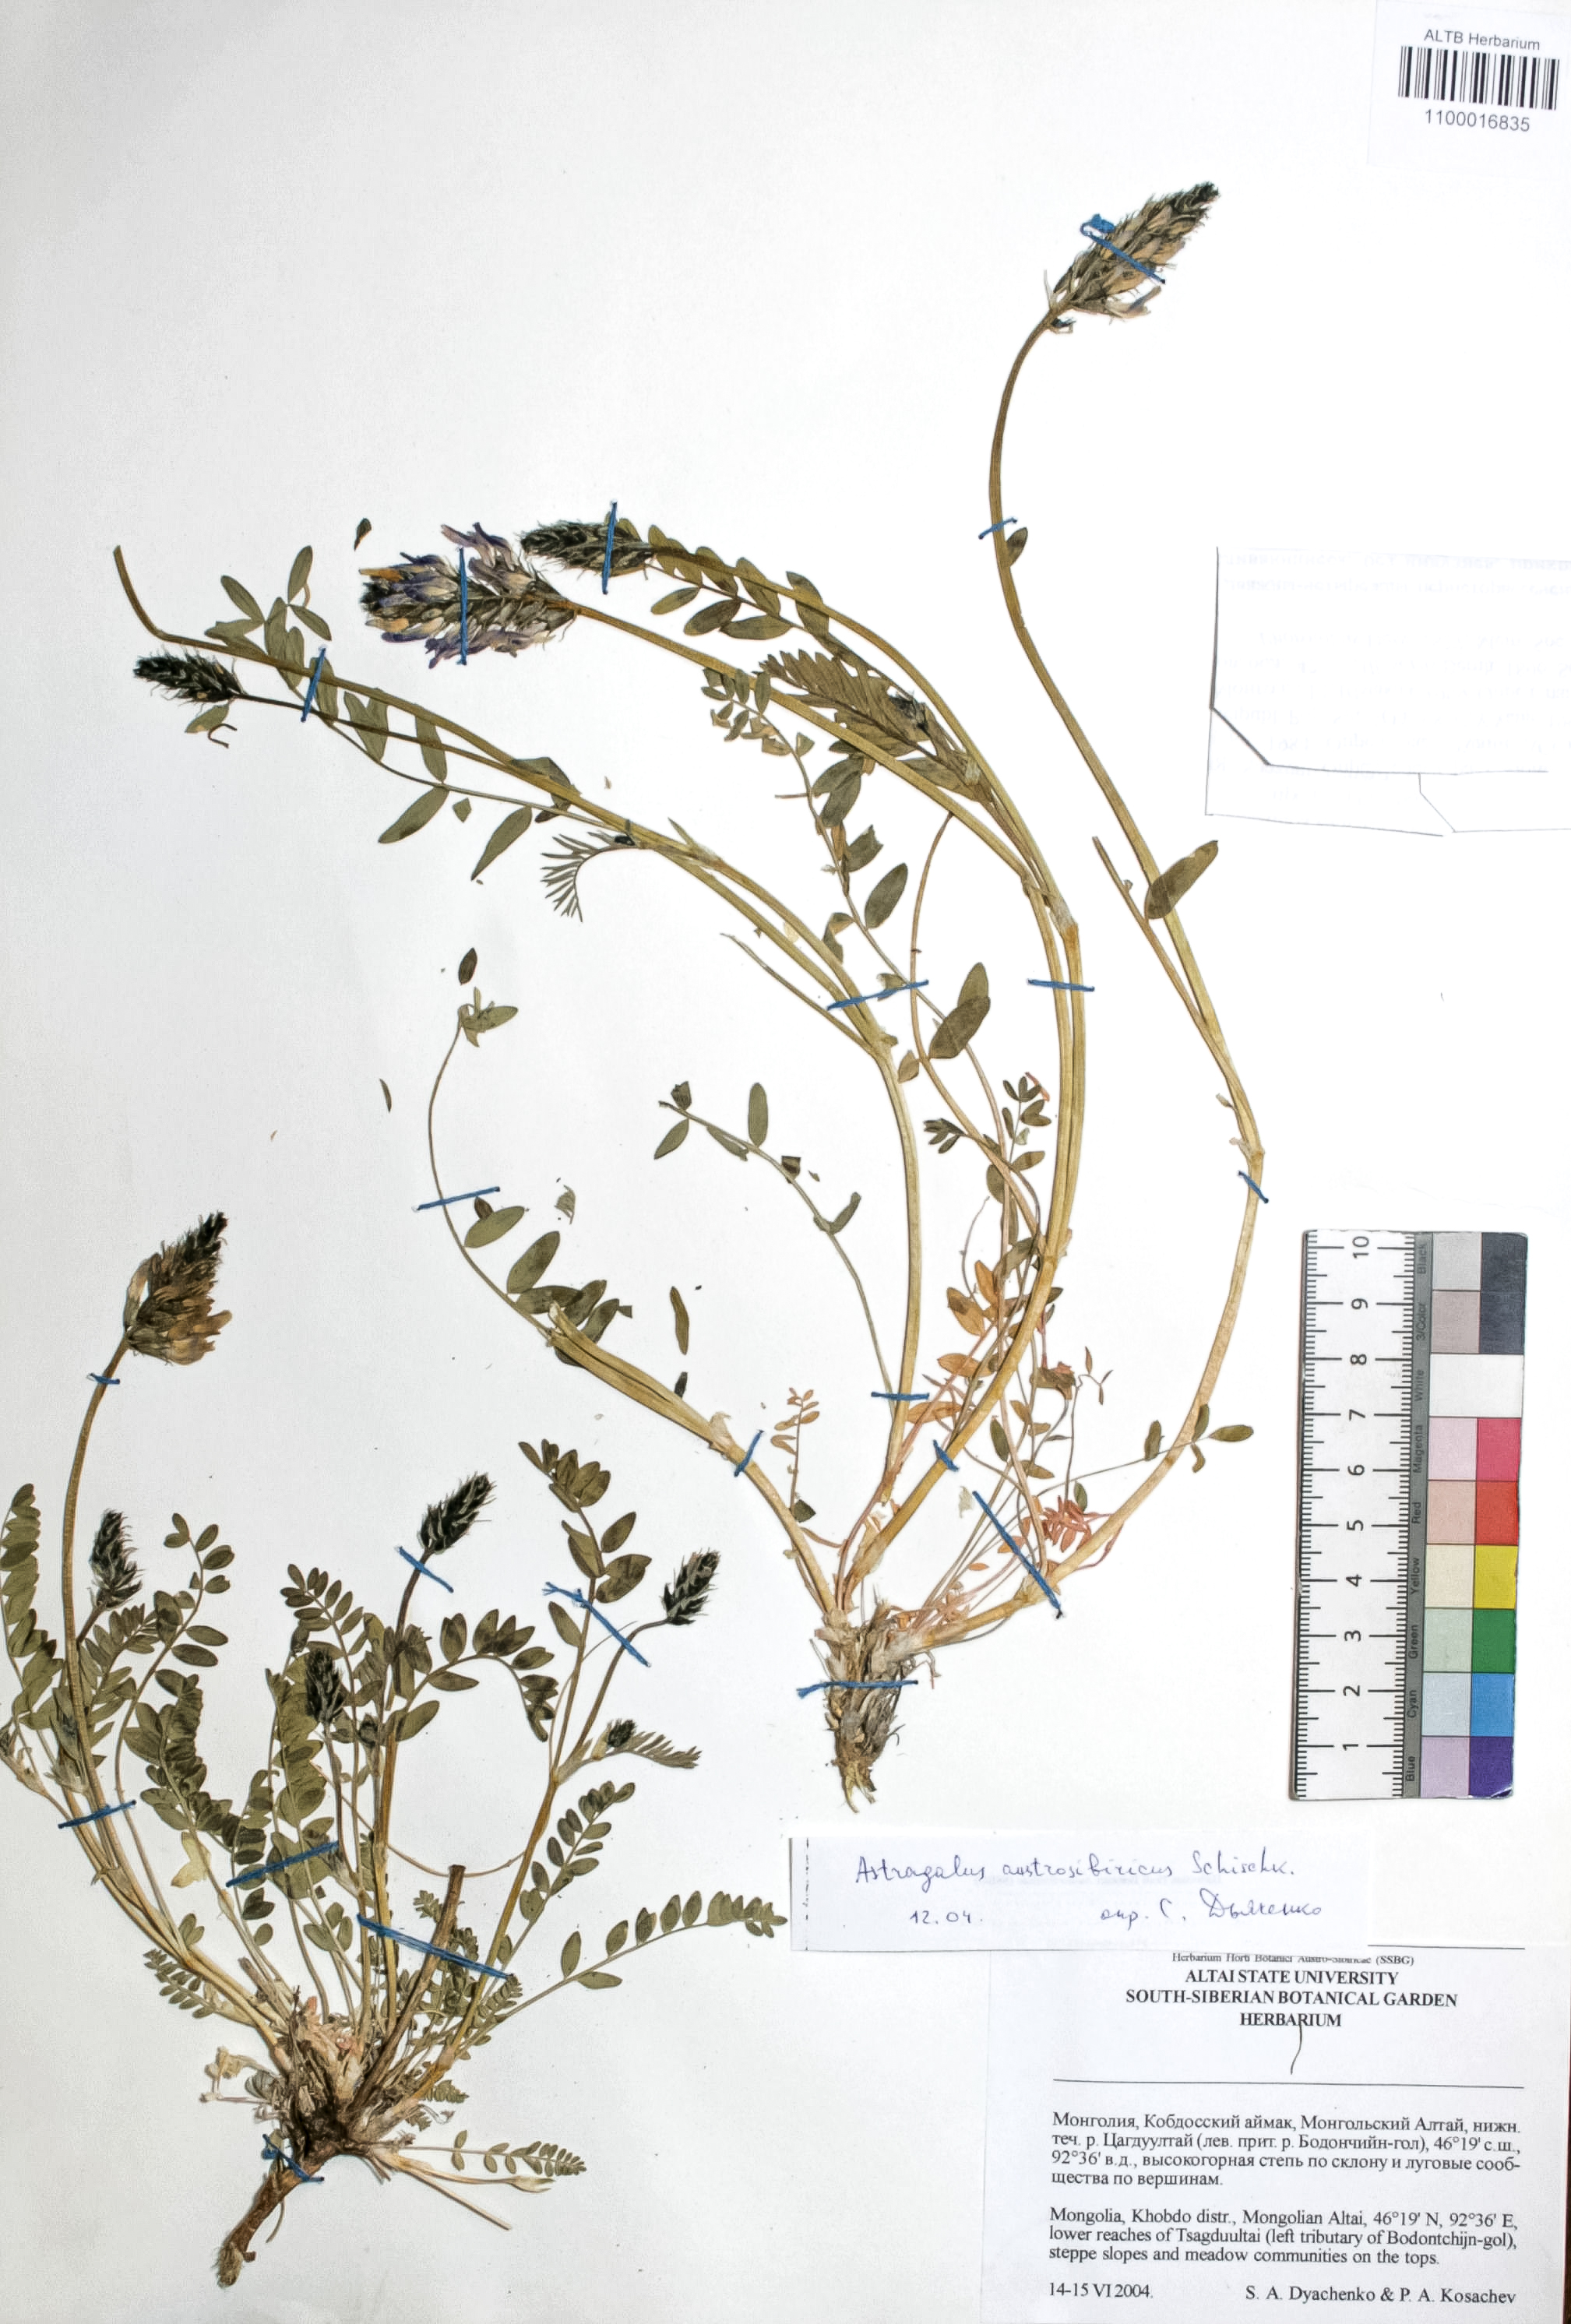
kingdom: Plantae
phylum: Tracheophyta
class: Magnoliopsida
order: Fabales
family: Fabaceae
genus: Astragalus
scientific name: Astragalus laxmannii
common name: Laxmann's milk-vetch
